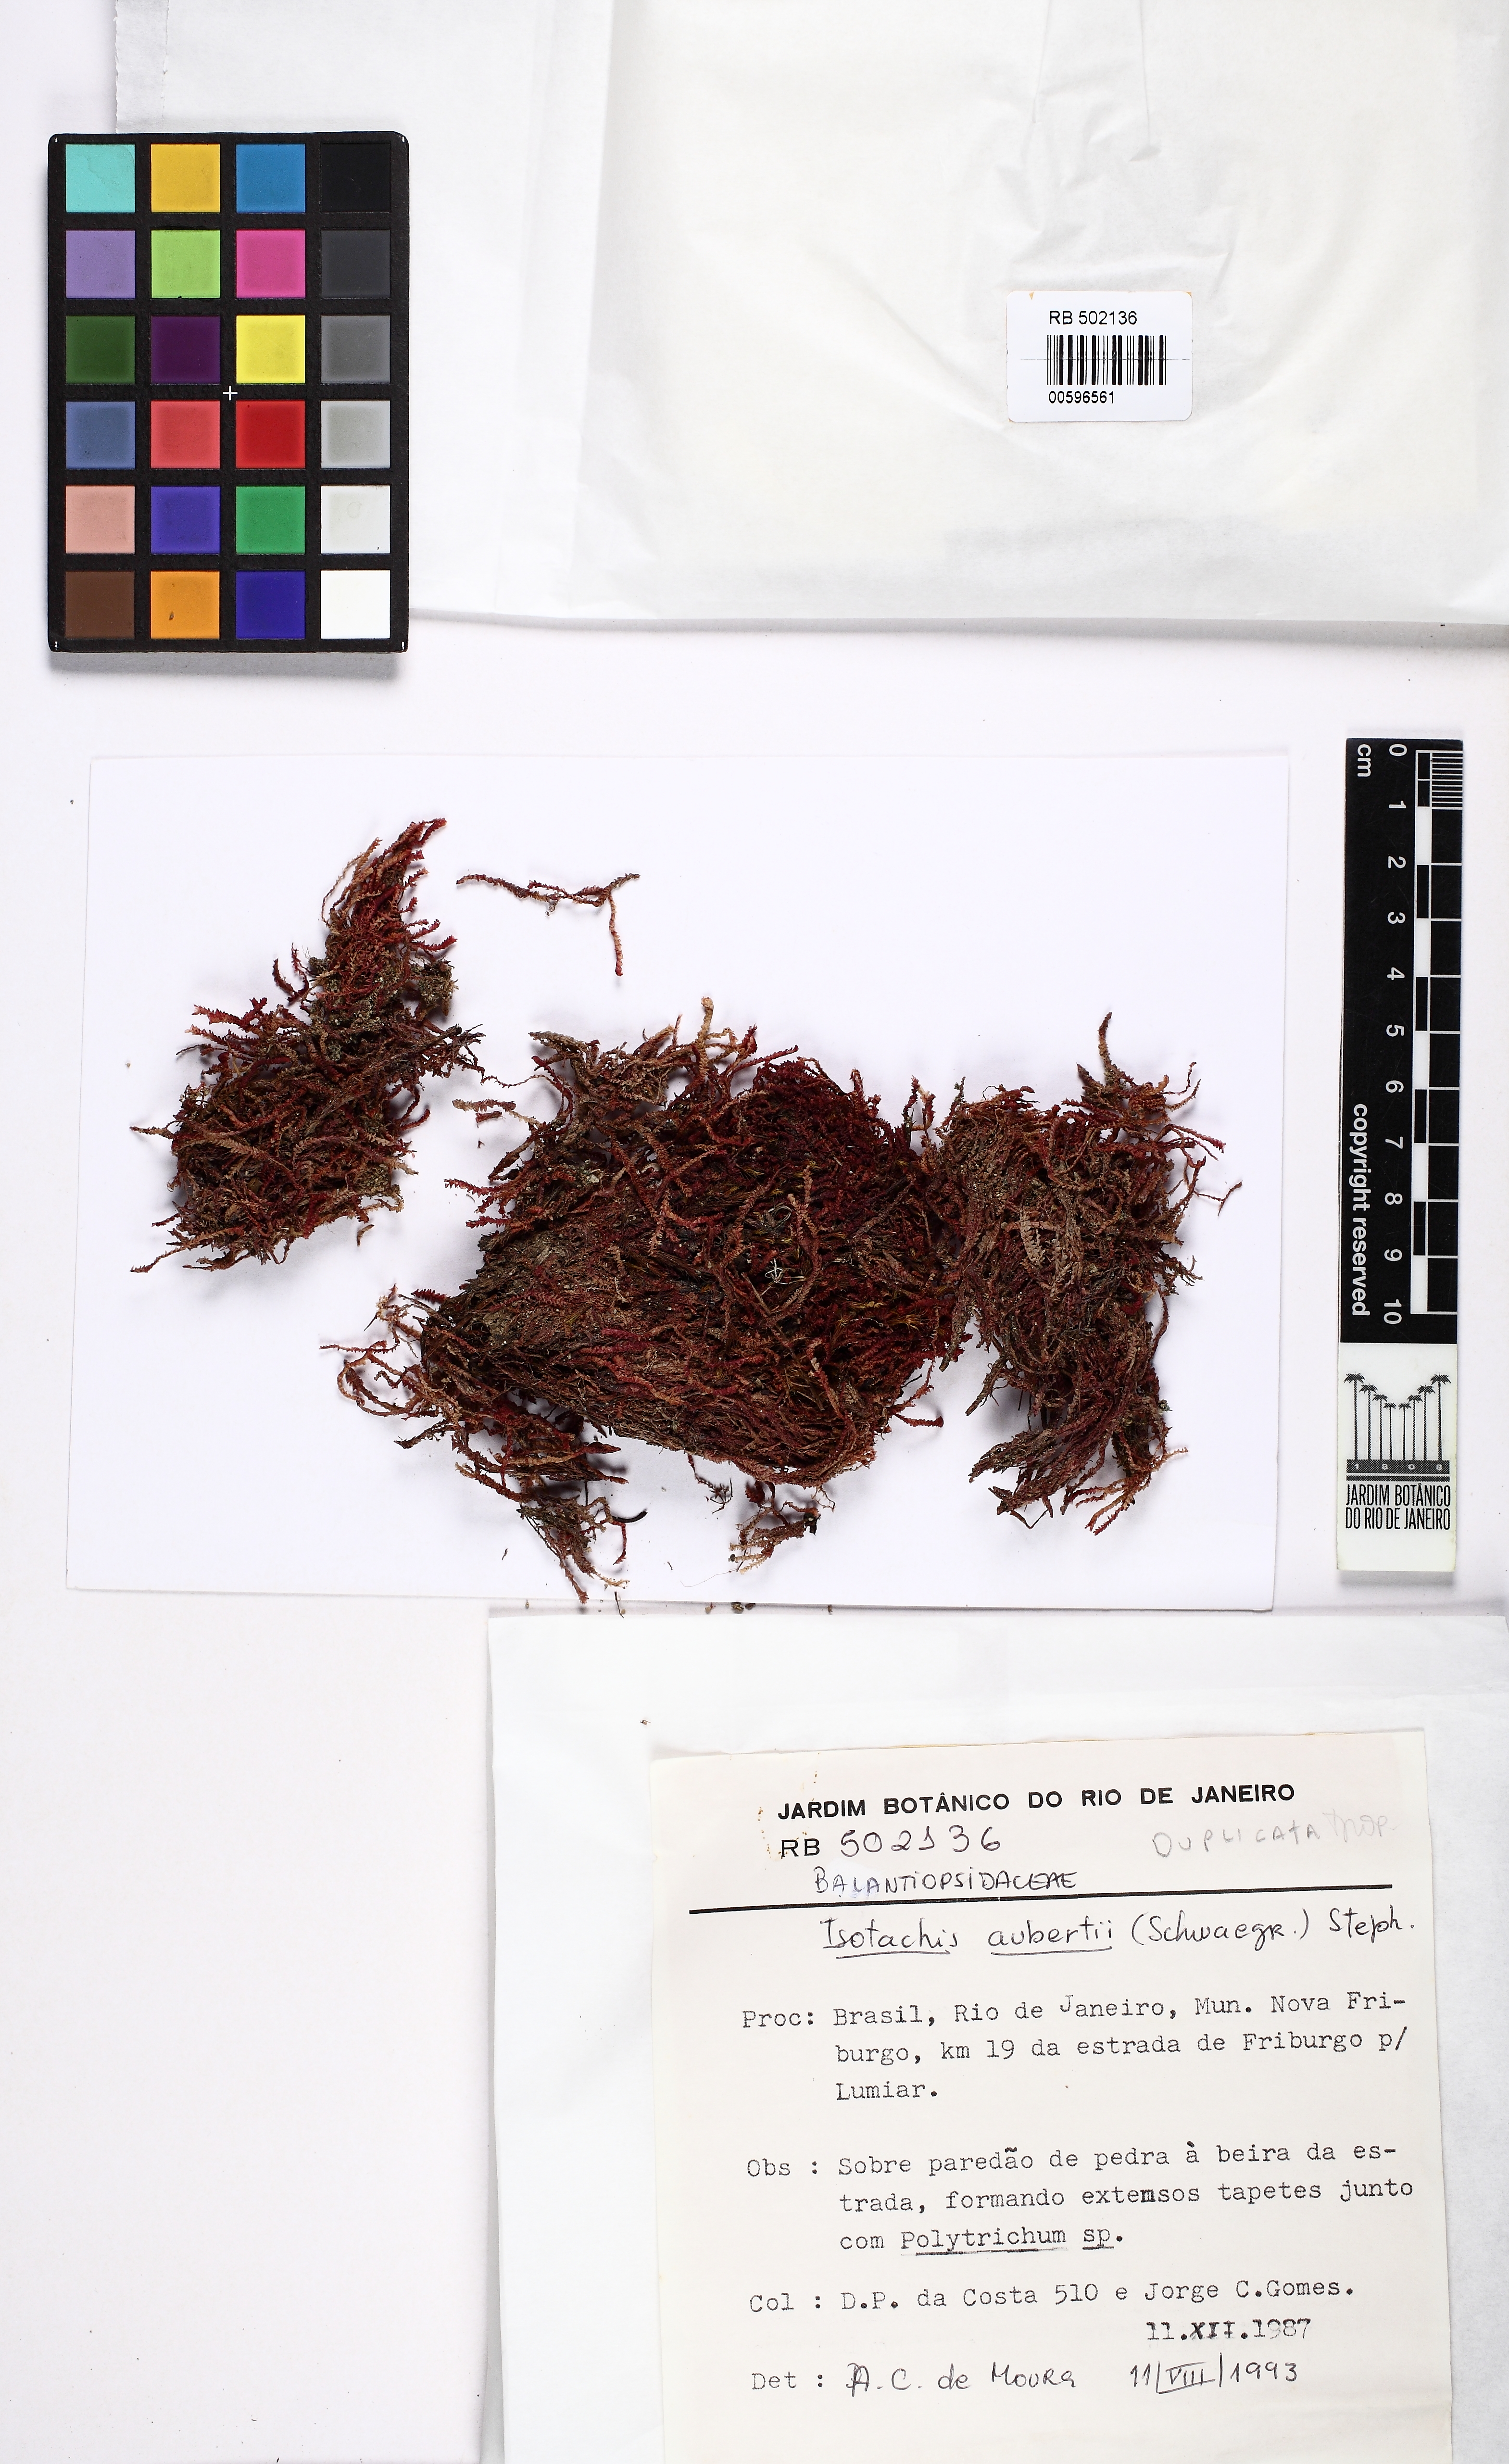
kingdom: Plantae
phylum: Marchantiophyta
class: Jungermanniopsida
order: Jungermanniales
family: Balantiopsidaceae
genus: Isotachis
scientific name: Isotachis aubertii
